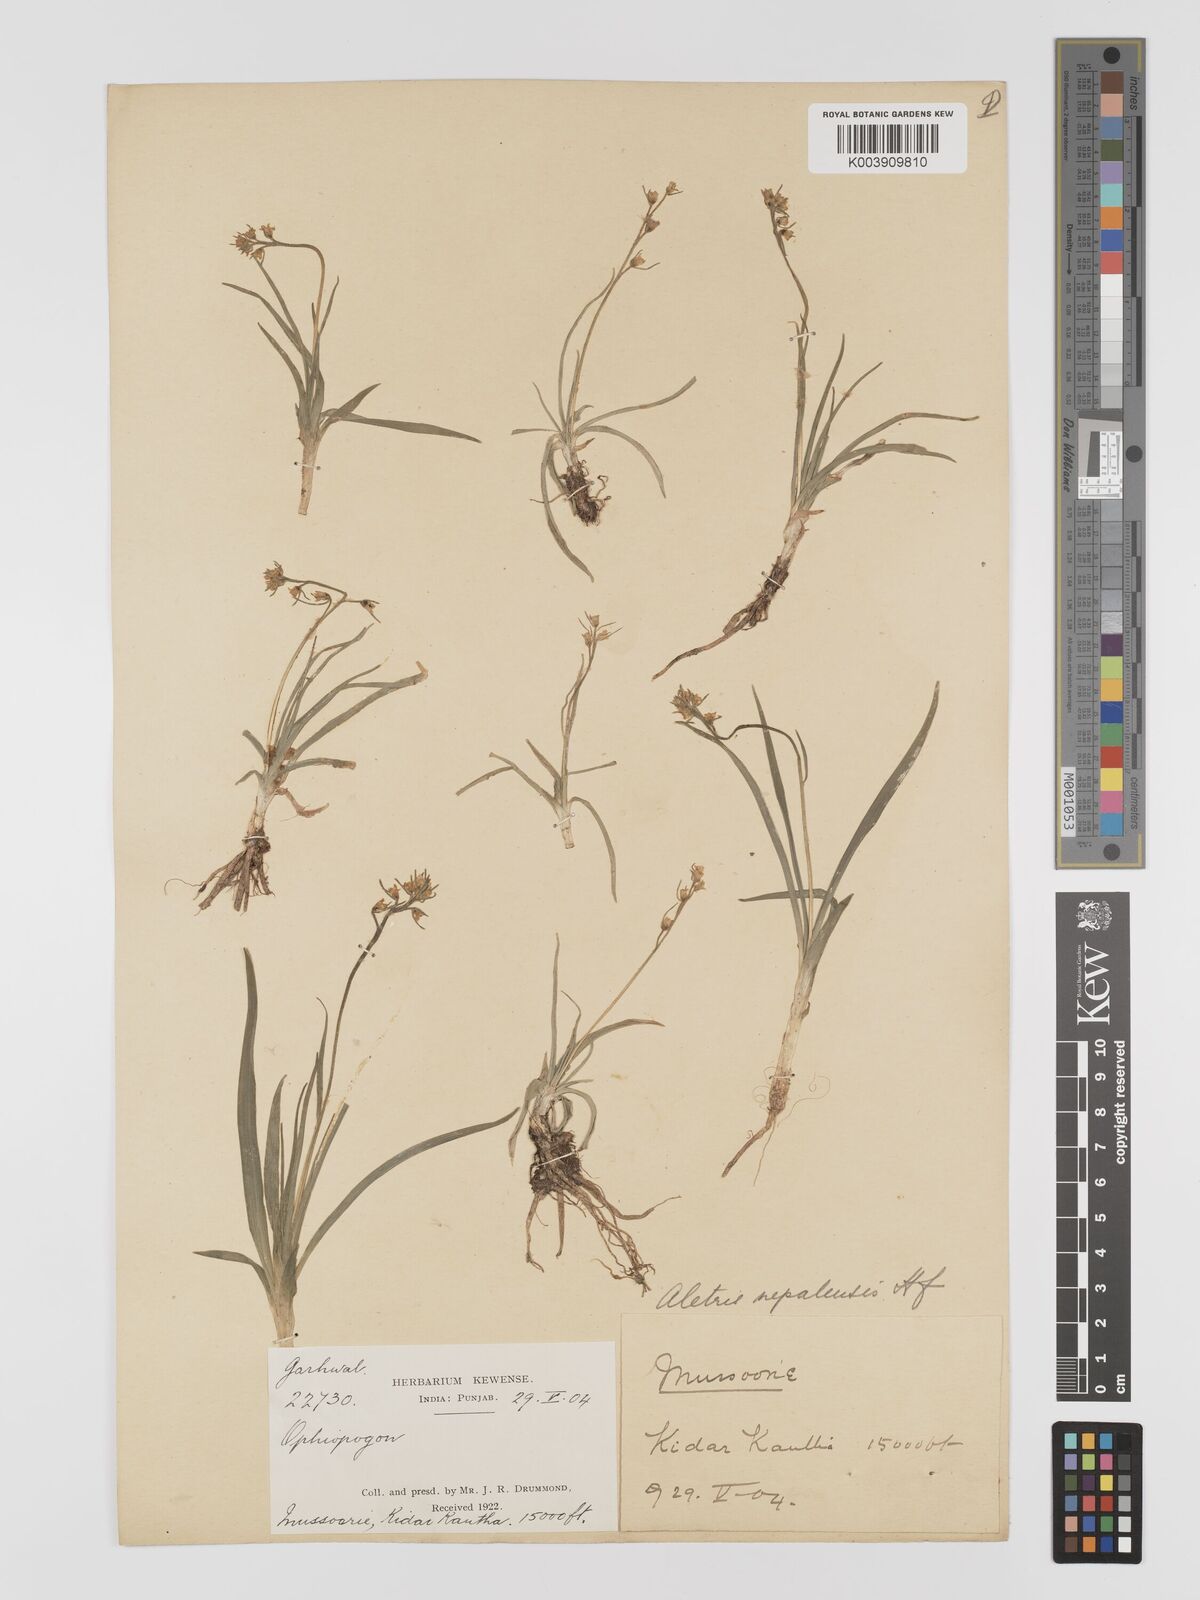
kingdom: Plantae
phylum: Tracheophyta
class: Liliopsida
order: Dioscoreales
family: Nartheciaceae
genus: Aletris
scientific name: Aletris pauciflora
